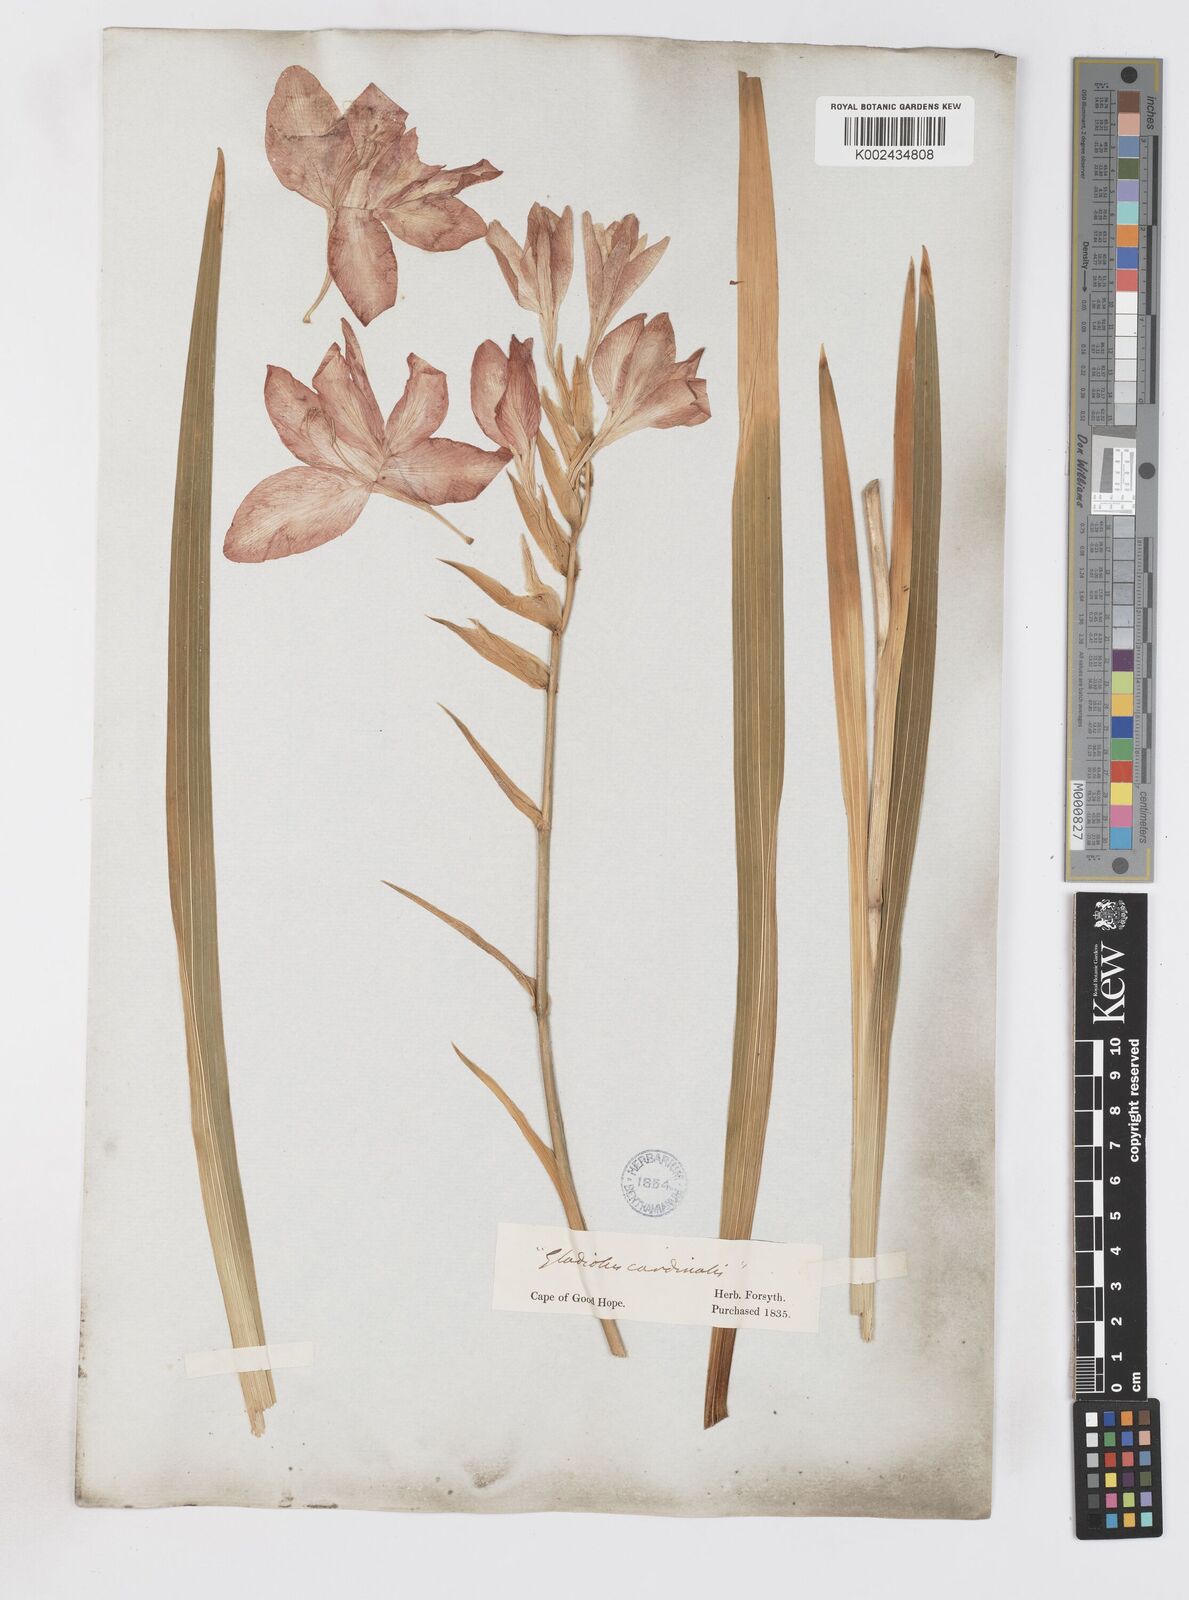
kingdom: Plantae
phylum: Tracheophyta
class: Liliopsida
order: Asparagales
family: Iridaceae
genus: Gladiolus
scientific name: Gladiolus cardinalis
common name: New year-lily
